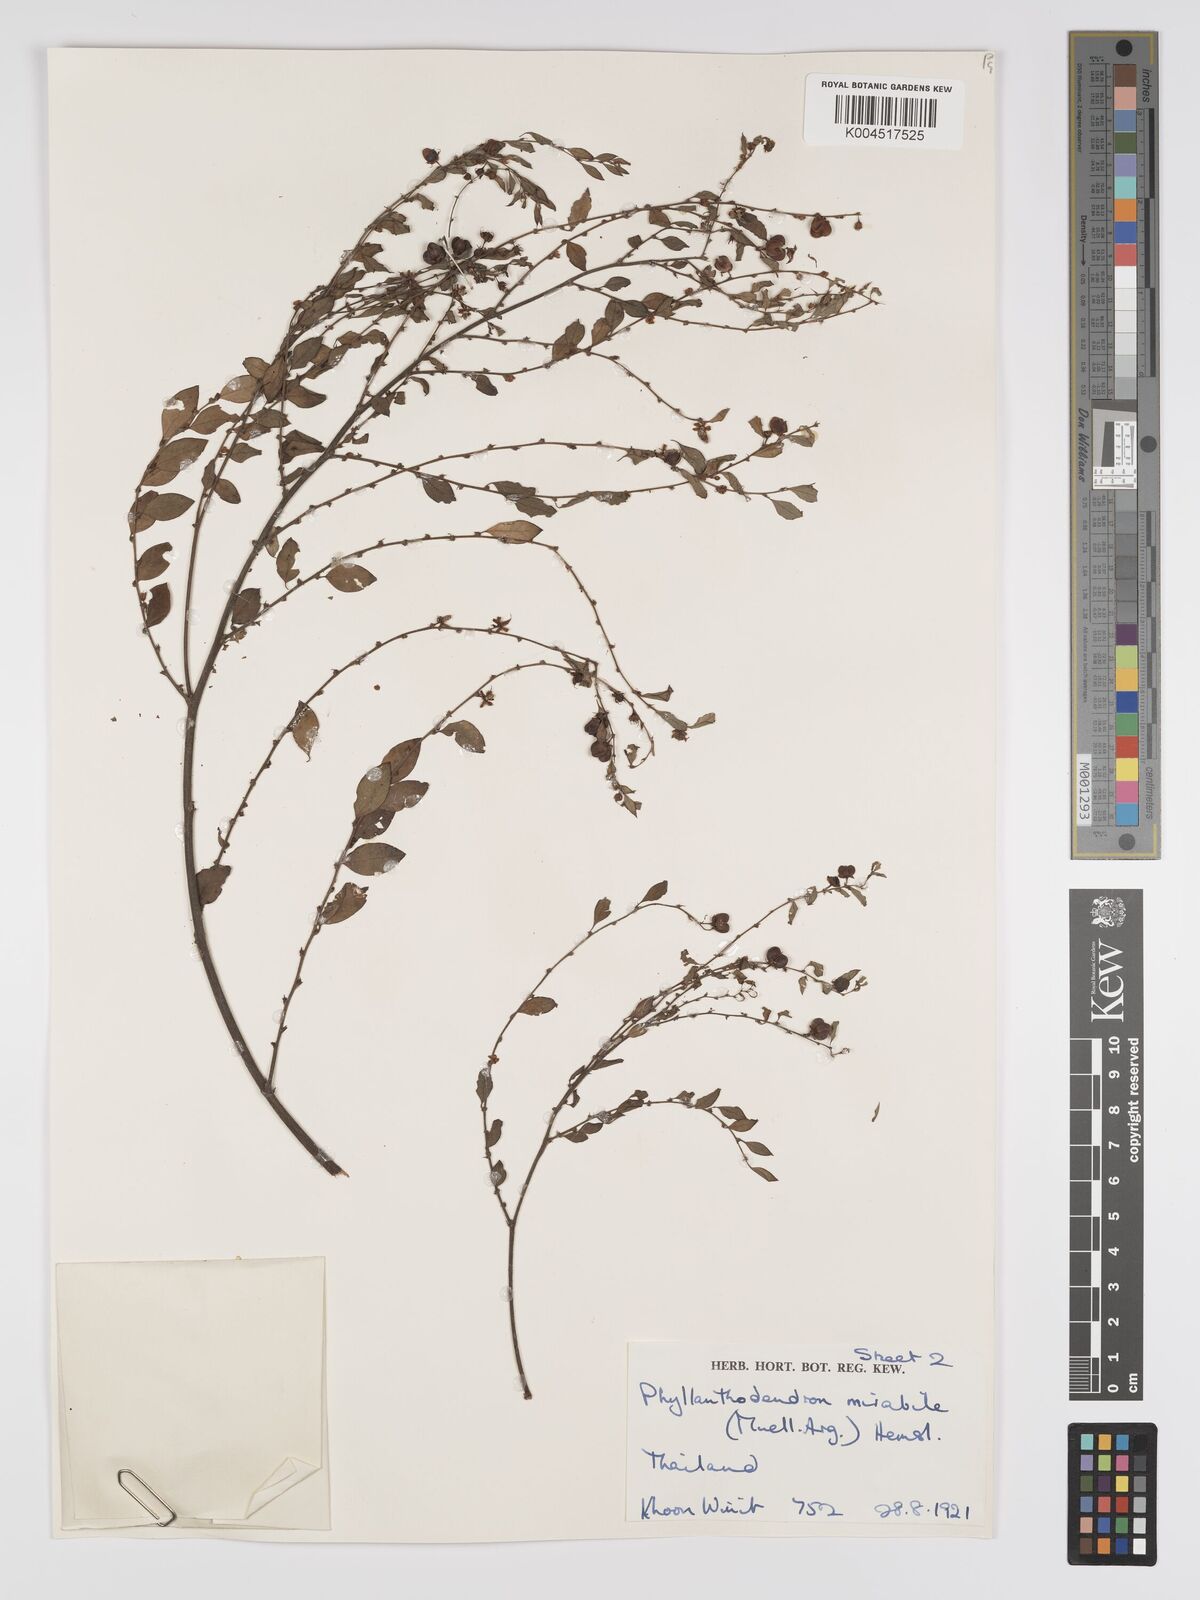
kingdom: Plantae
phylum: Tracheophyta
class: Magnoliopsida
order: Malpighiales
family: Phyllanthaceae
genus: Phyllanthus
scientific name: Phyllanthus mirabilis
